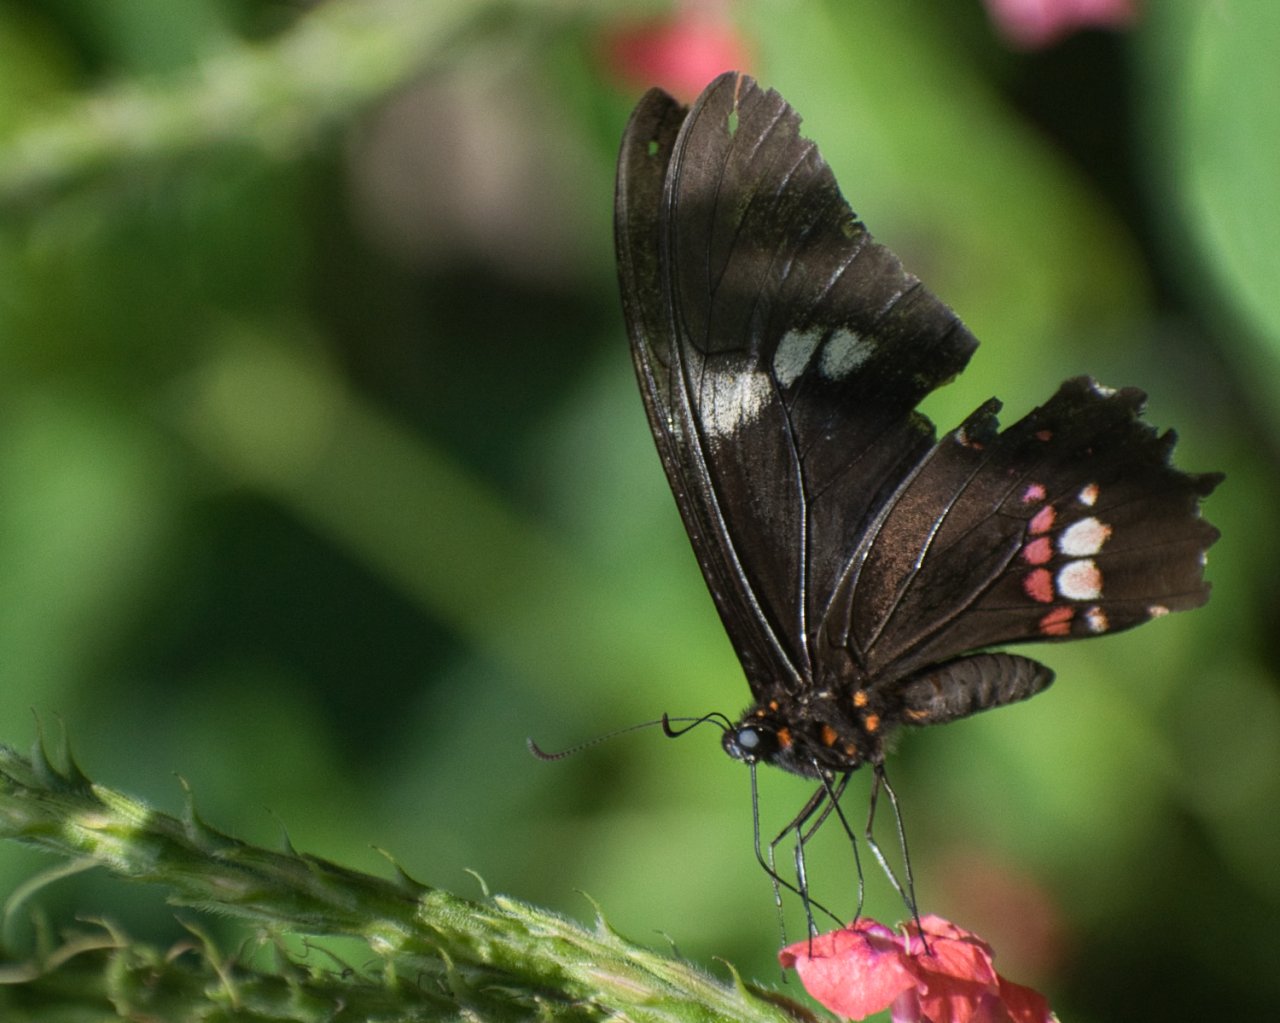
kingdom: Animalia
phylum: Arthropoda
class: Insecta
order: Lepidoptera
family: Papilionidae
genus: Papilio
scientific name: Papilio anchisiades
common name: Ruby-spotted Swallowtail
